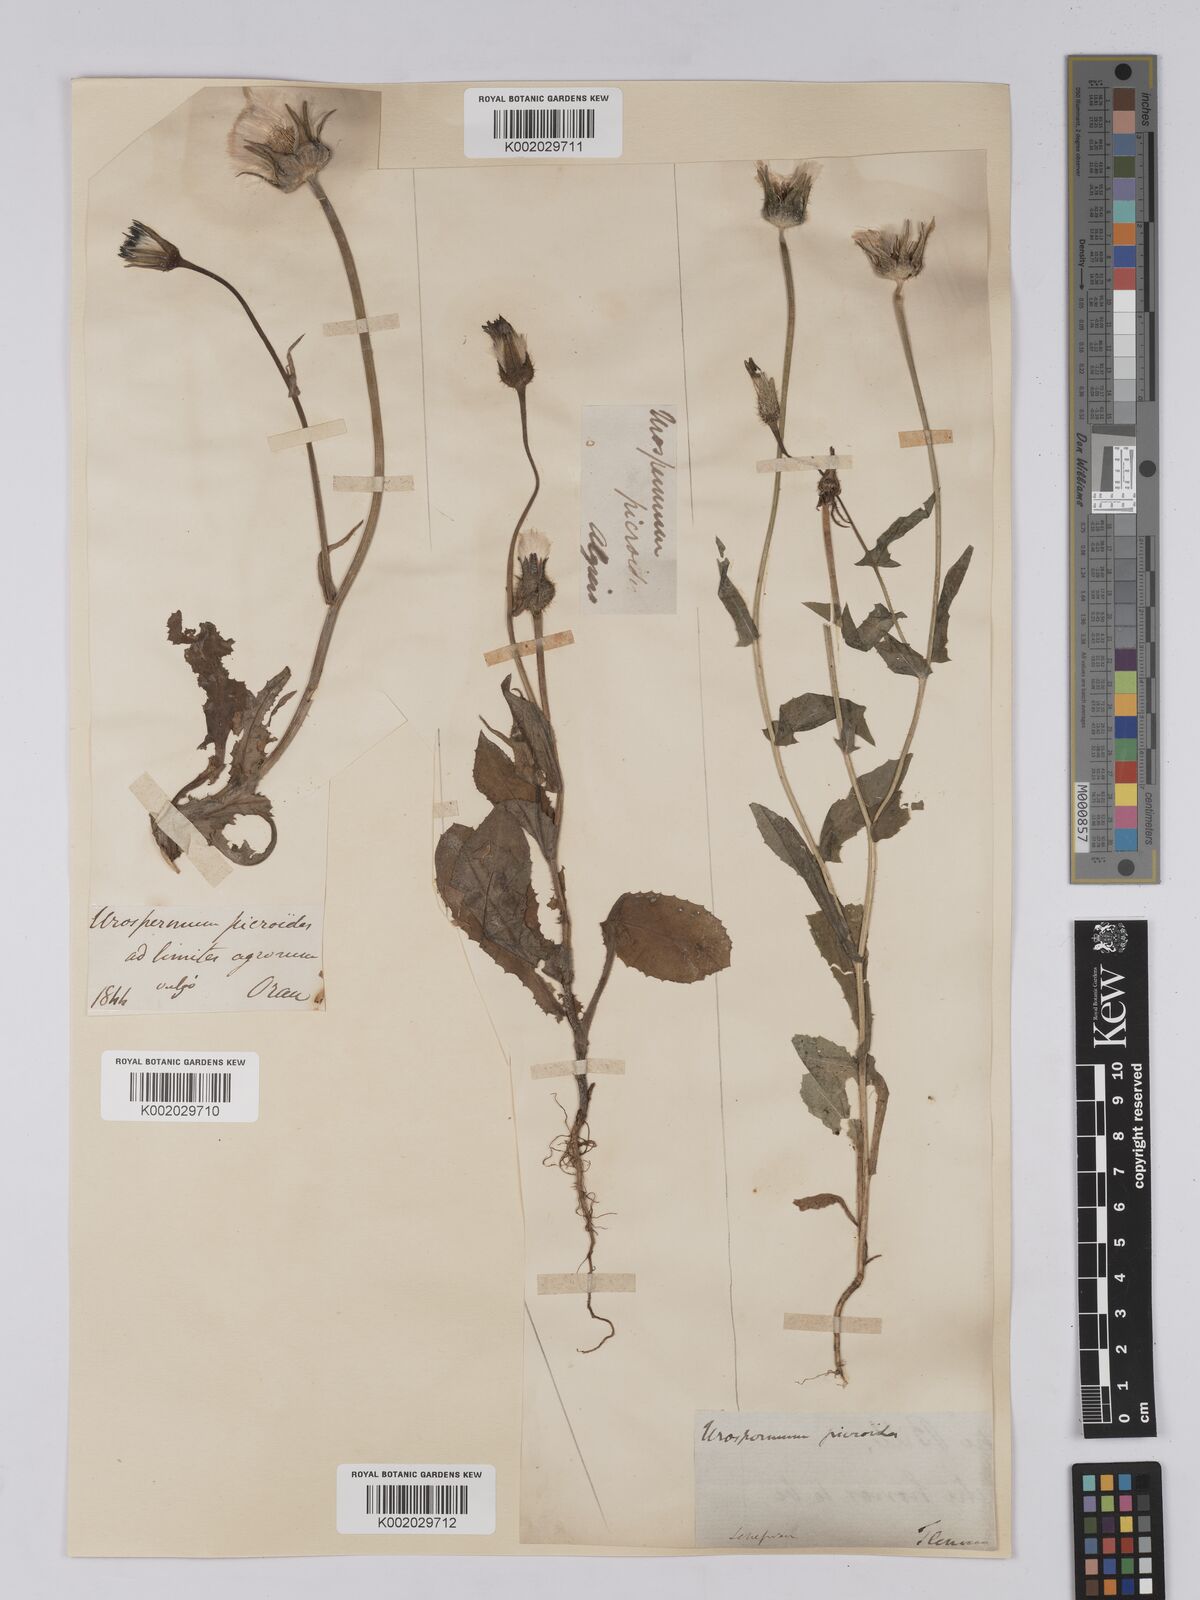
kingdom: Plantae
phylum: Tracheophyta
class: Magnoliopsida
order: Asterales
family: Asteraceae
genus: Urospermum
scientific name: Urospermum picroides
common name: False hawkbit
